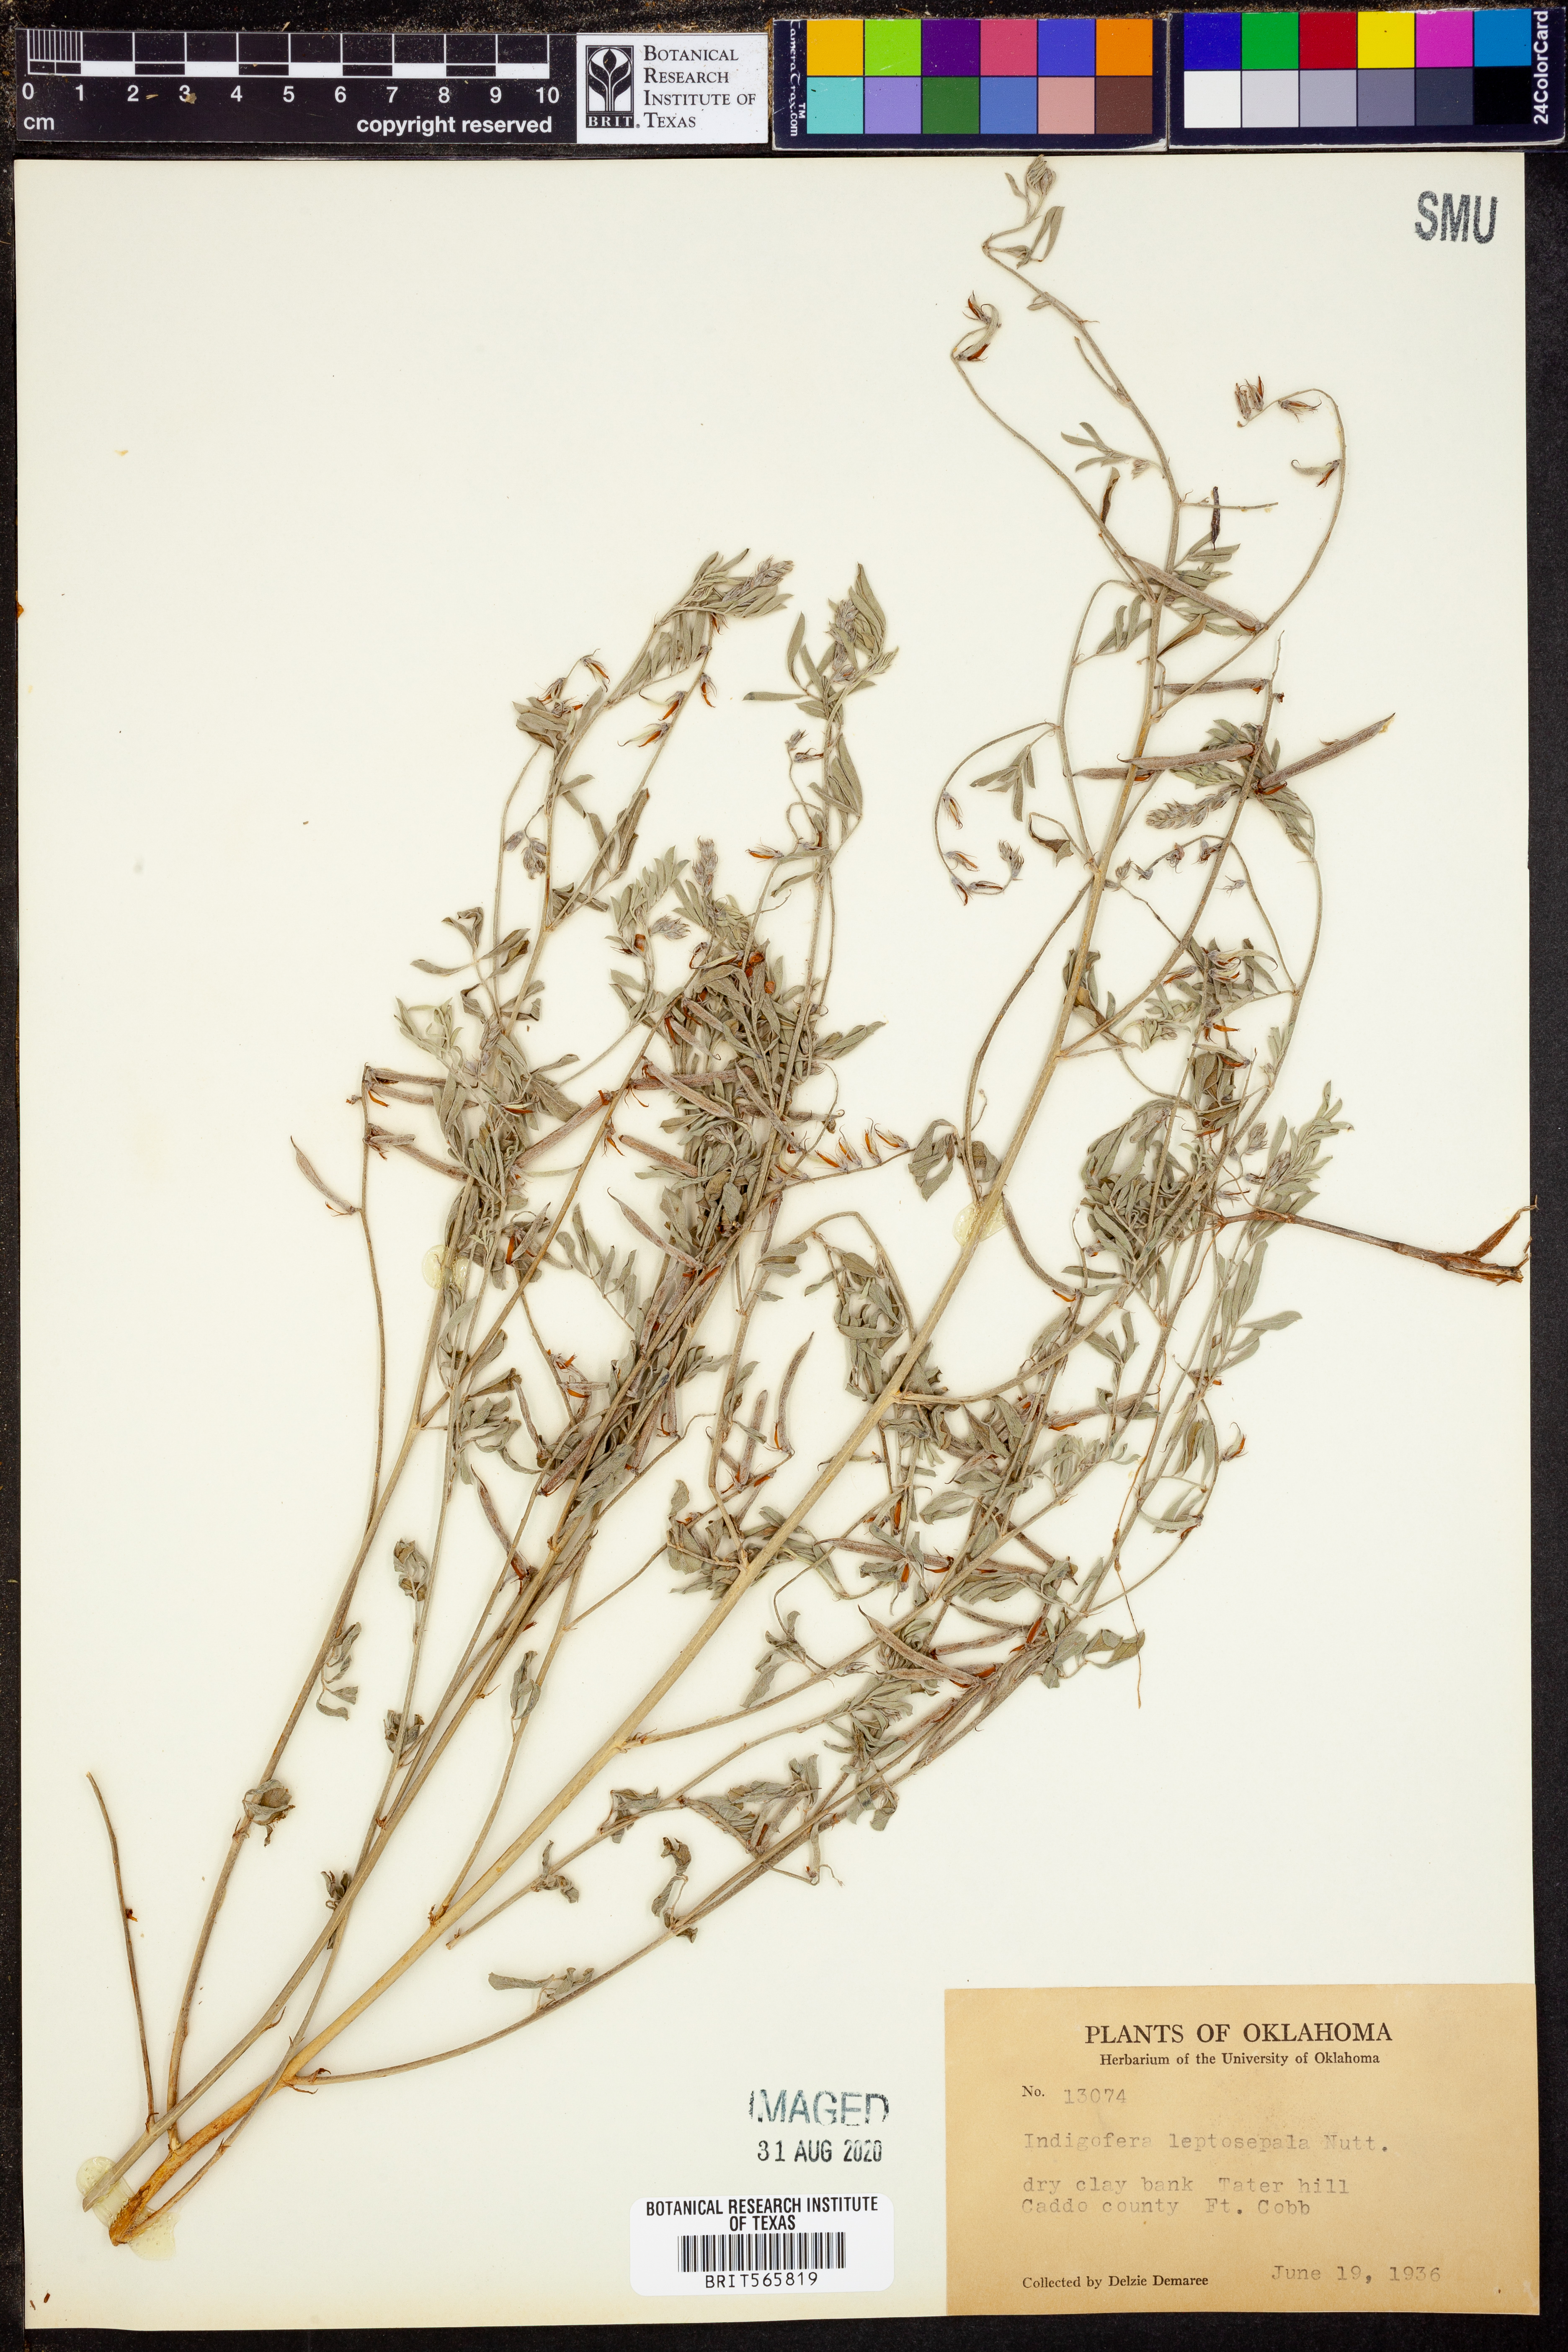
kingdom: Plantae
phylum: Tracheophyta
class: Magnoliopsida
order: Fabales
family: Fabaceae
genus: Indigofera
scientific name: Indigofera argutidens
